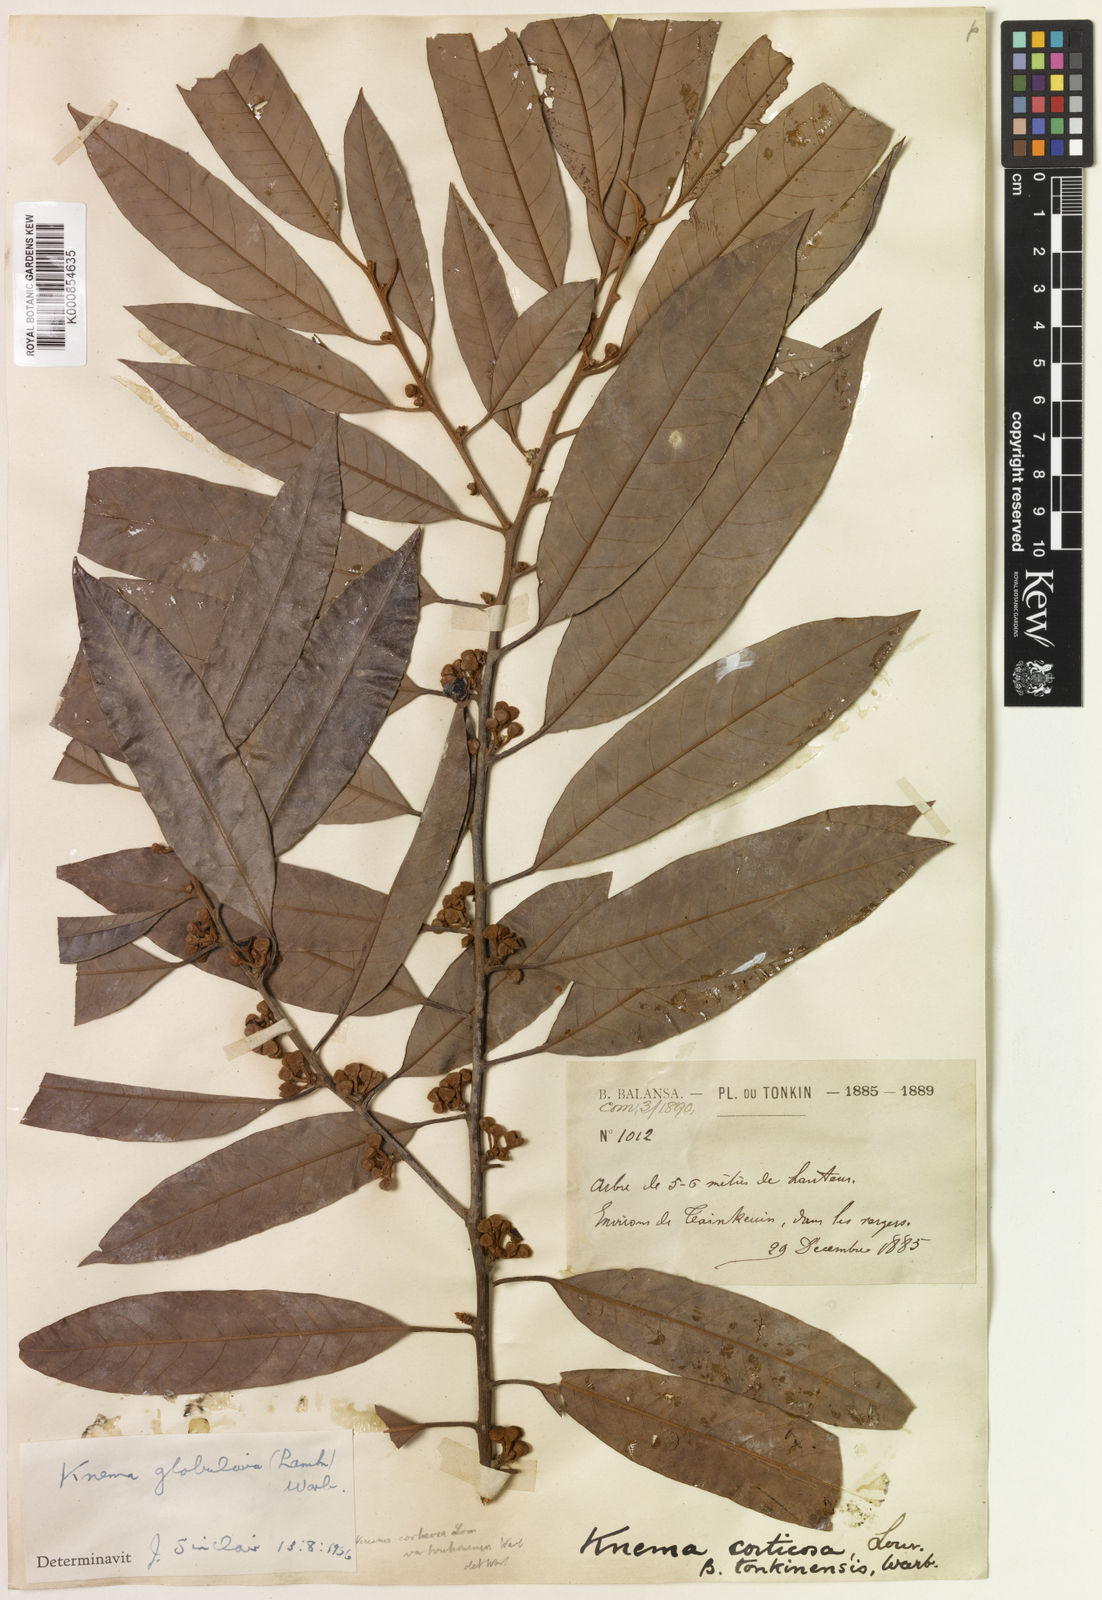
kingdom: Plantae
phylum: Tracheophyta
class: Magnoliopsida
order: Magnoliales
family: Myristicaceae
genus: Knema
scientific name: Knema globularia
